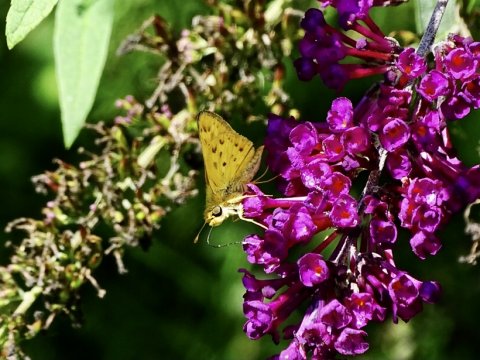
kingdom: Animalia
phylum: Arthropoda
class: Insecta
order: Lepidoptera
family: Hesperiidae
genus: Hylephila
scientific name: Hylephila phyleus
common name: Fiery Skipper
